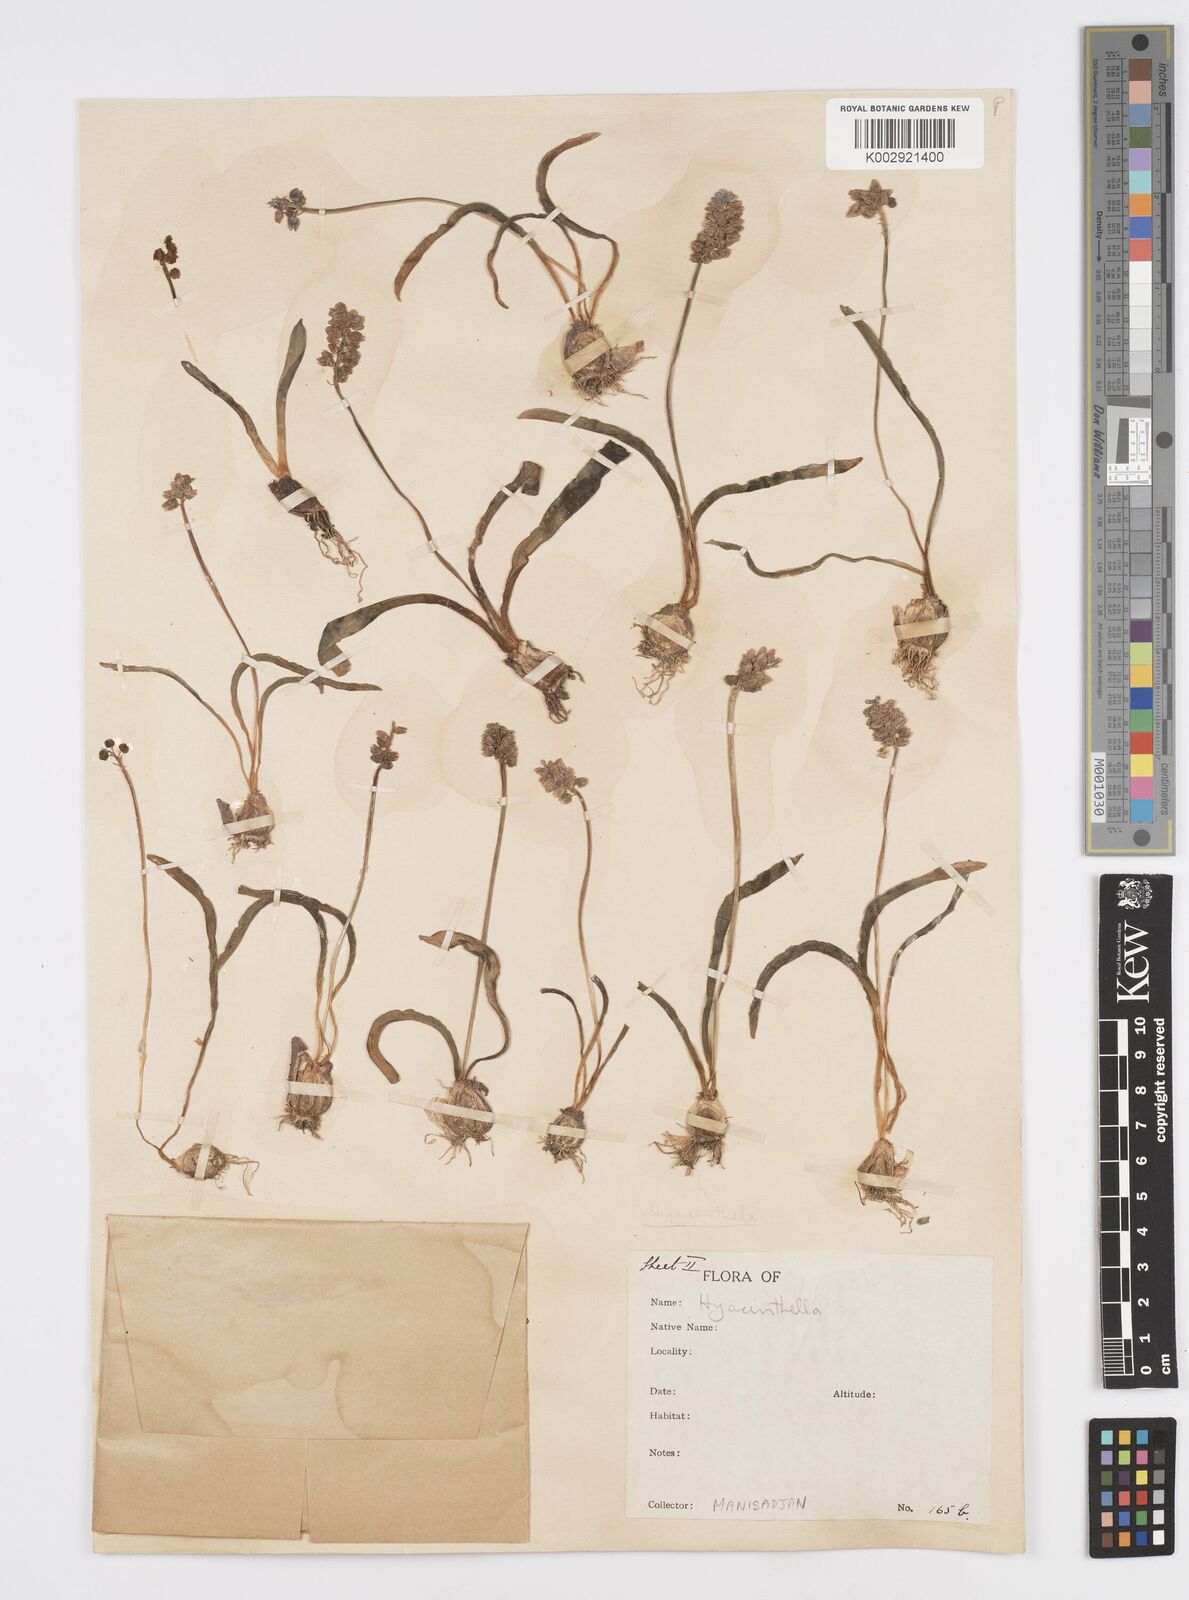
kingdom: Plantae
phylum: Tracheophyta
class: Liliopsida
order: Asparagales
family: Asparagaceae
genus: Muscari
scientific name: Muscari
